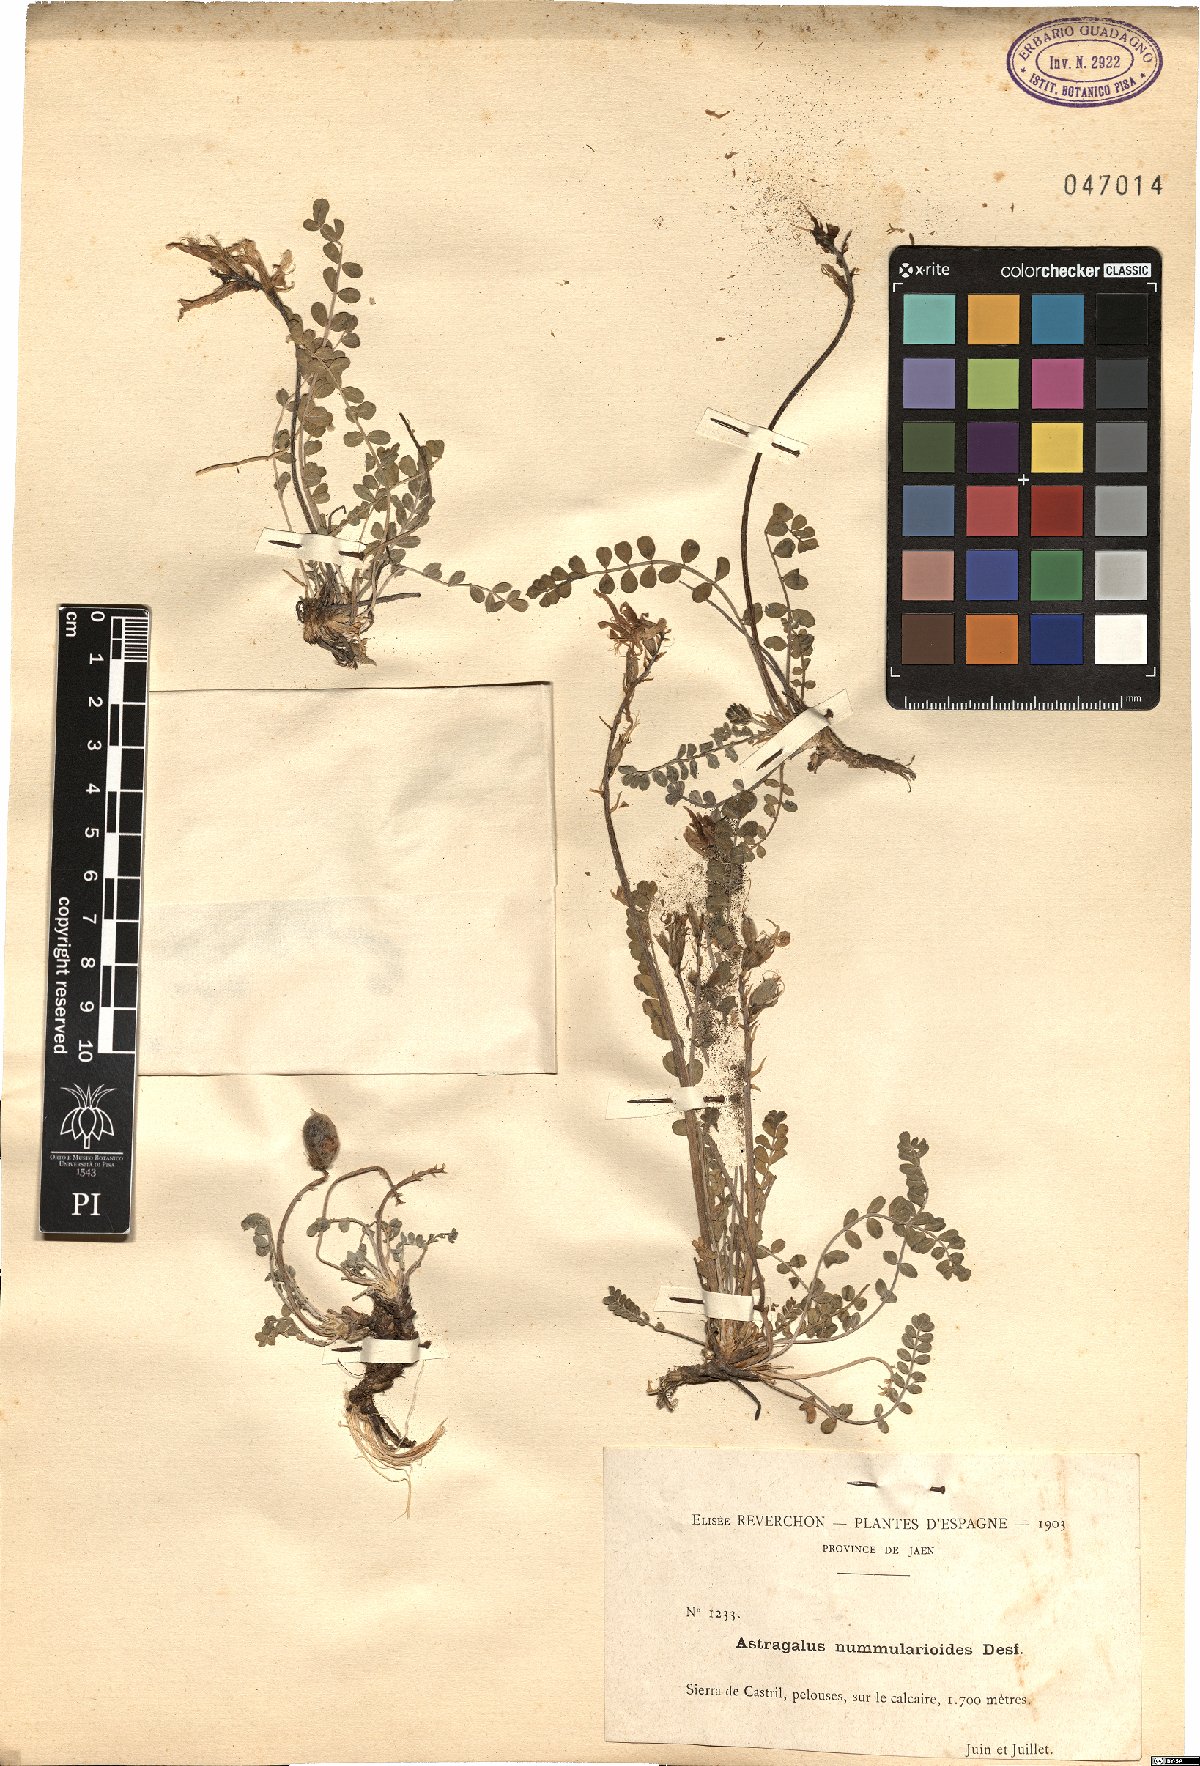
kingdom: Plantae
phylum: Tracheophyta
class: Magnoliopsida
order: Fabales
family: Fabaceae
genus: Astragalus
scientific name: Astragalus incanus
